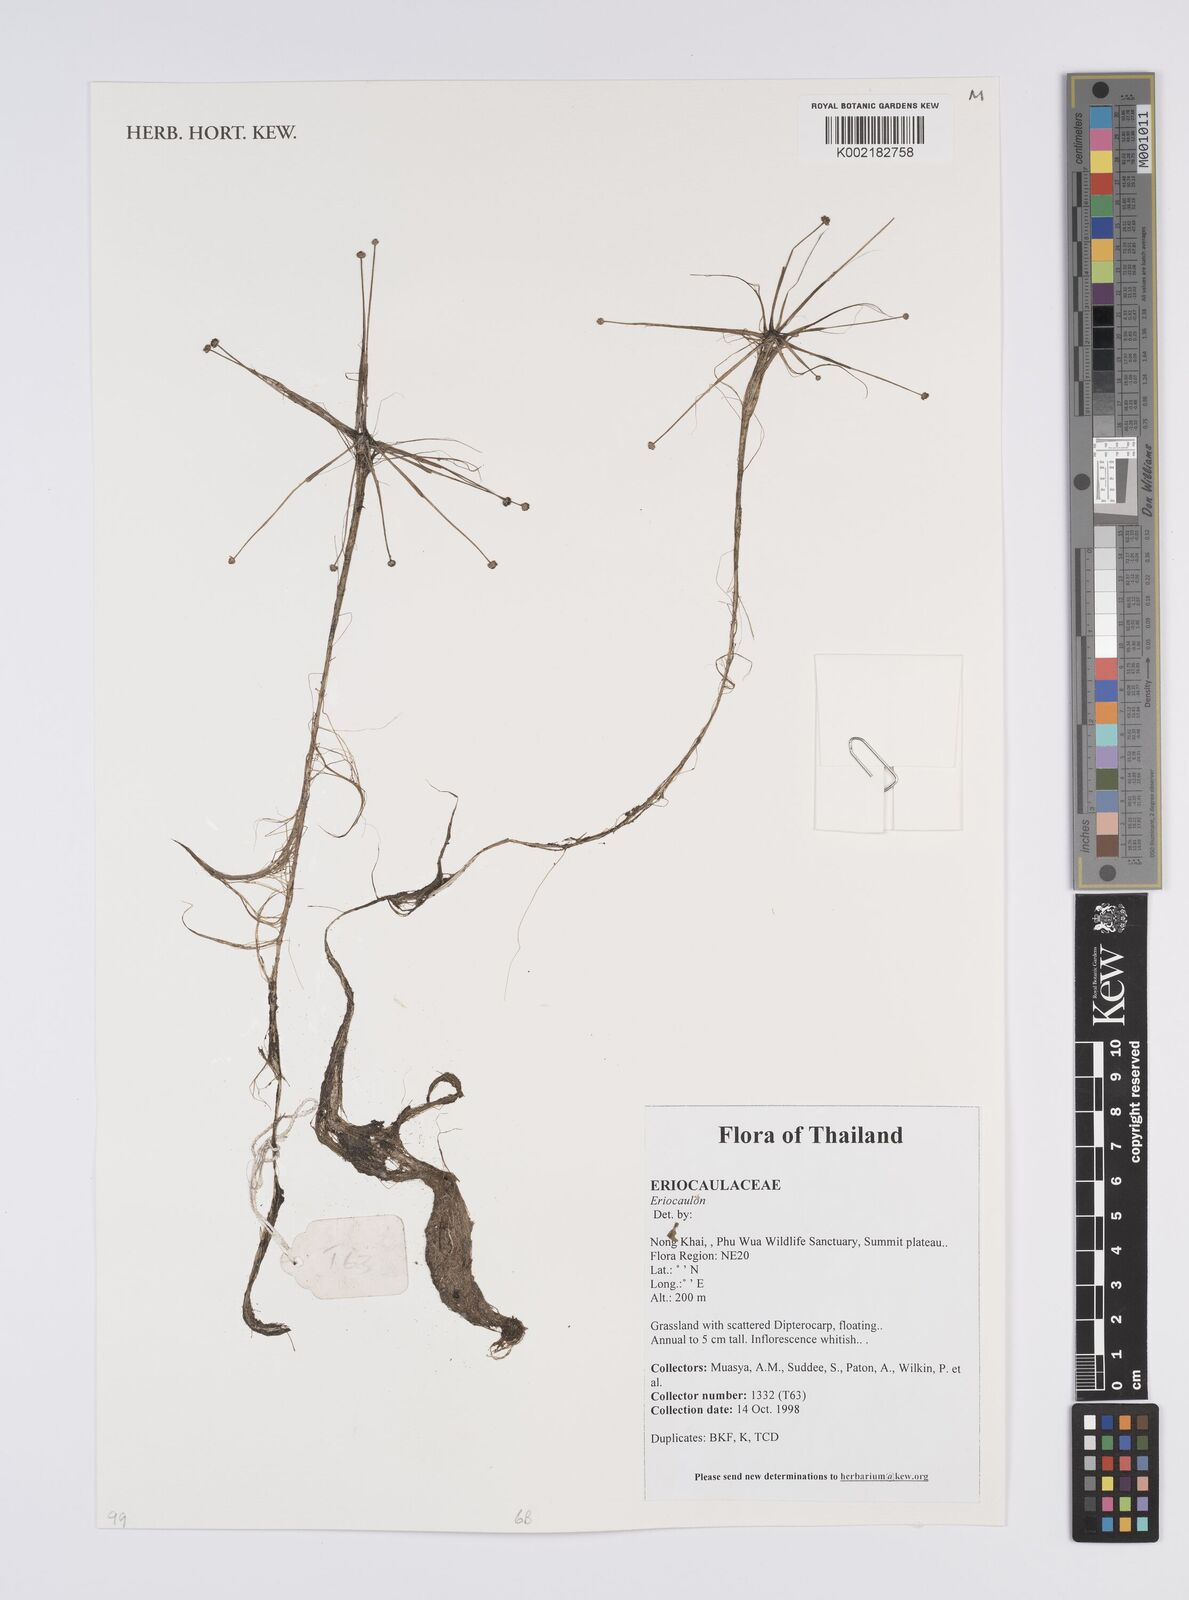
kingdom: Plantae
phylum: Tracheophyta
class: Liliopsida
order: Poales
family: Eriocaulaceae
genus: Eriocaulon
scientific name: Eriocaulon
